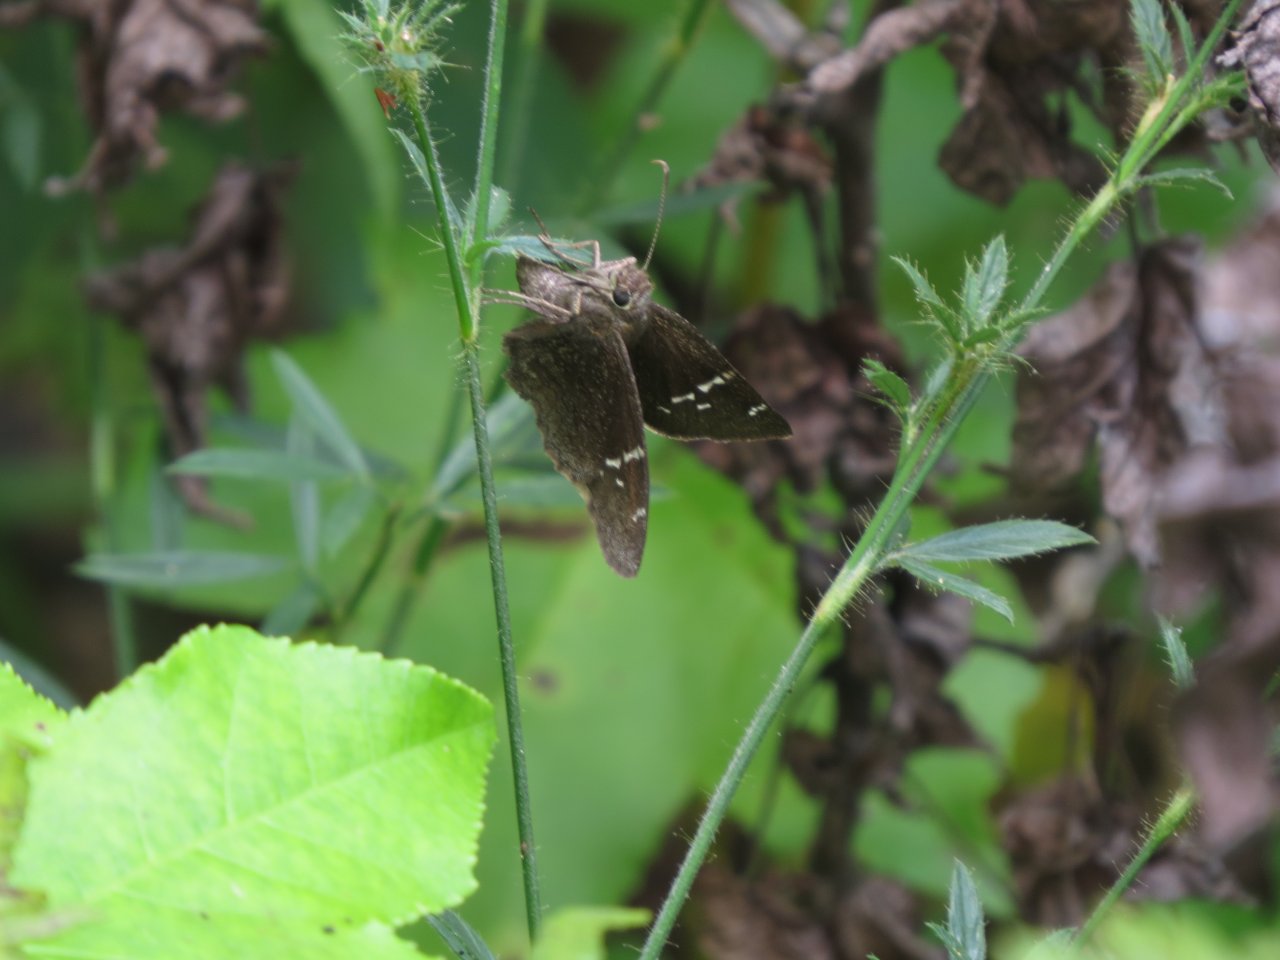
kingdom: Animalia
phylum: Arthropoda
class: Insecta
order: Lepidoptera
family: Hesperiidae
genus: Thorybes
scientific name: Thorybes mexicana
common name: Confused Cloudywing
